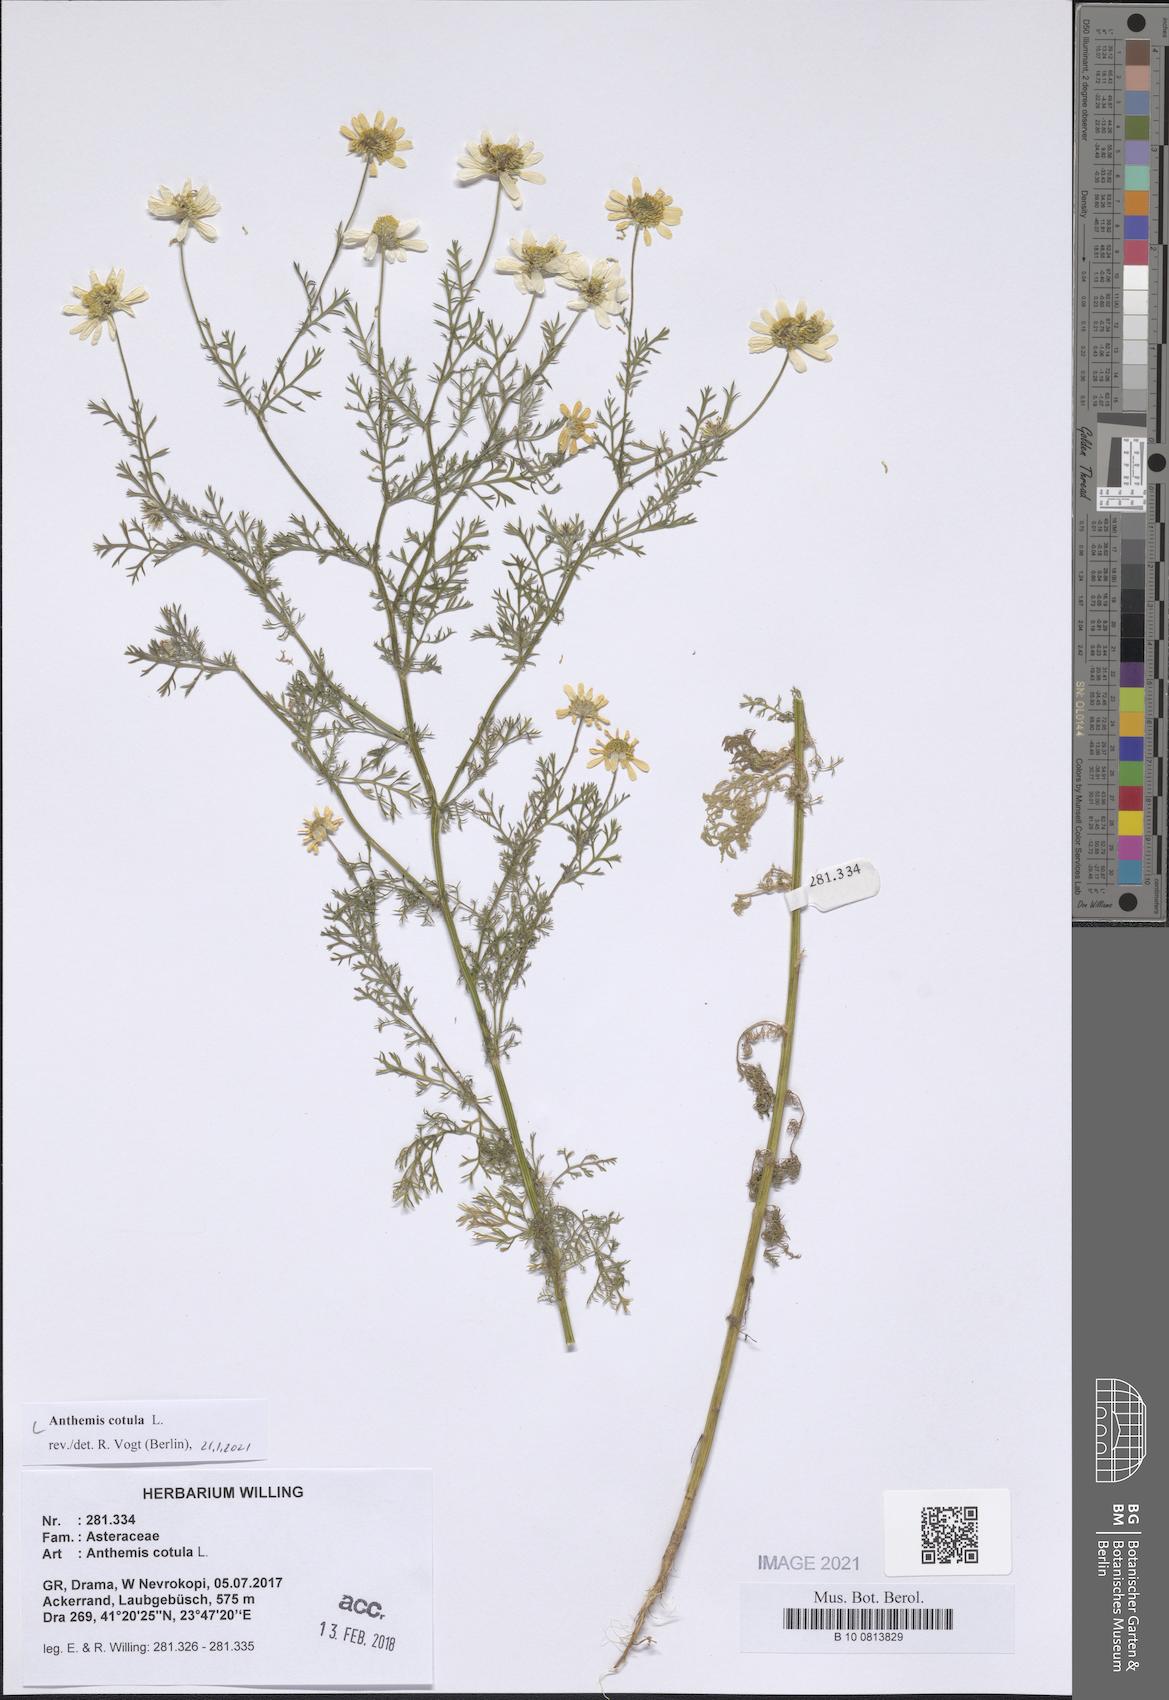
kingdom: Plantae
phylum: Tracheophyta
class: Magnoliopsida
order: Asterales
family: Asteraceae
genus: Anthemis
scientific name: Anthemis cotula
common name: Stinking chamomile
